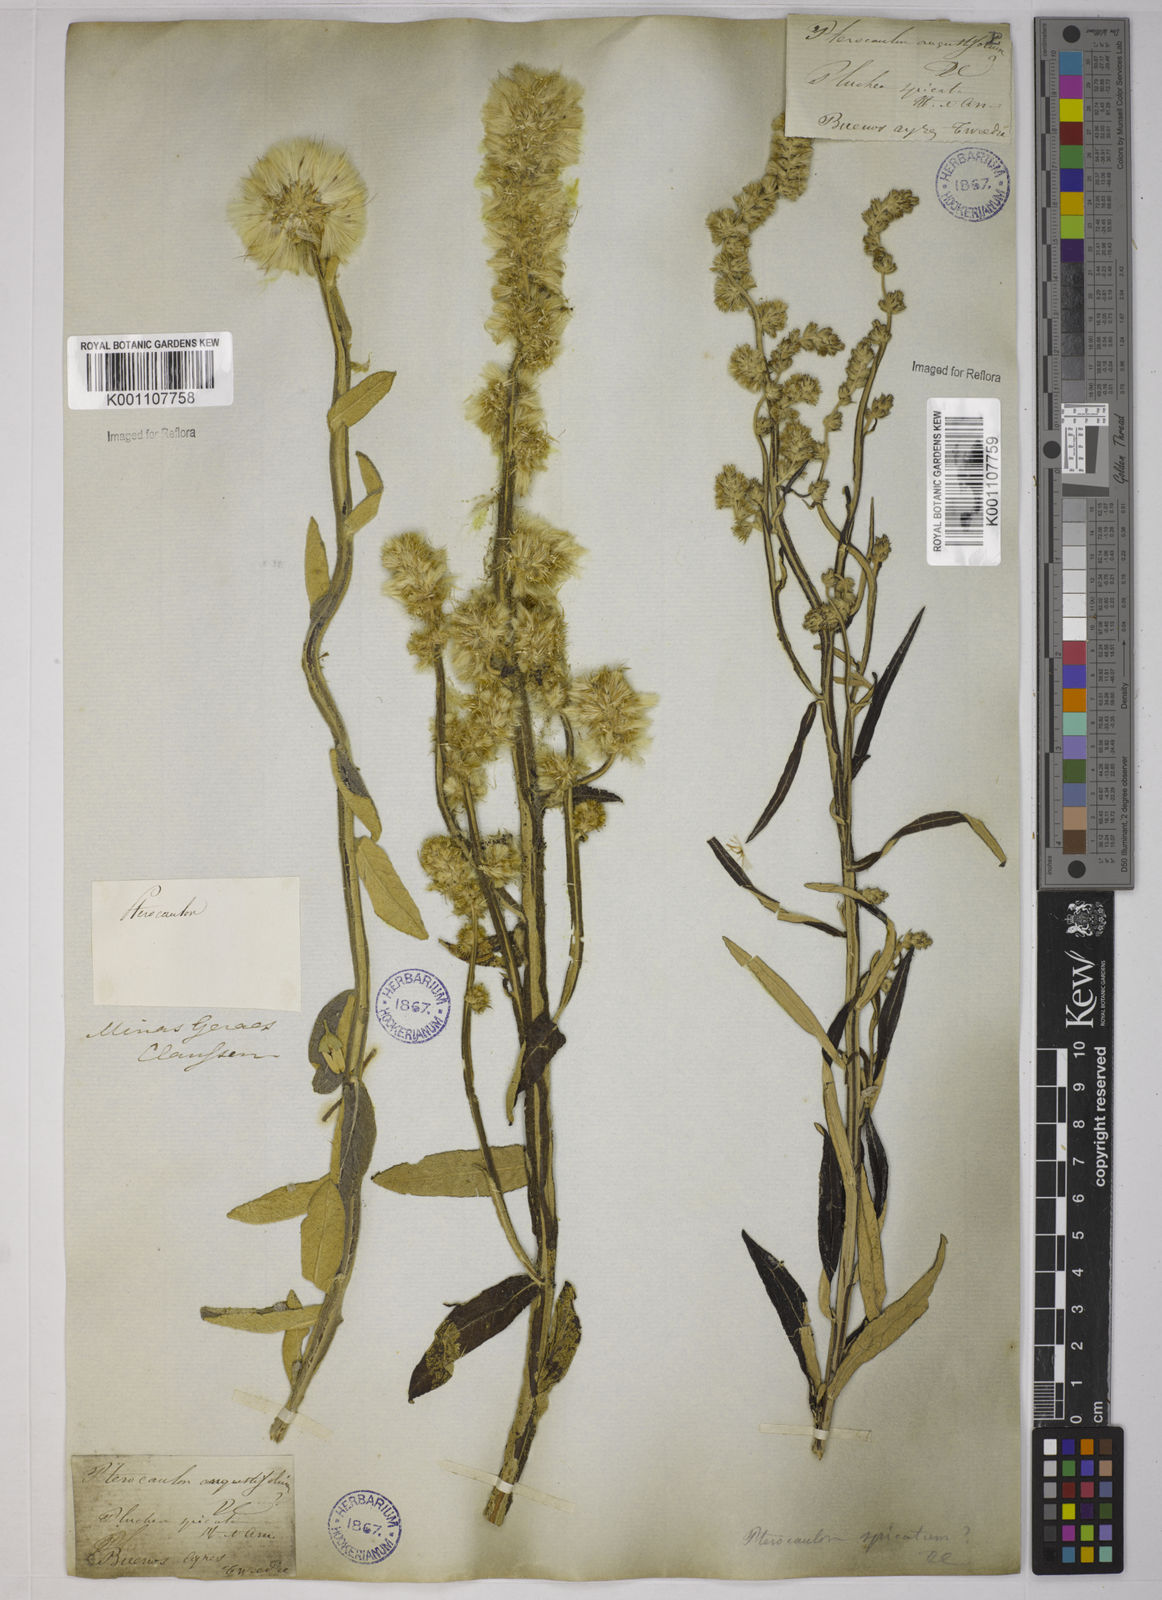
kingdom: Plantae
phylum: Tracheophyta
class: Magnoliopsida
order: Asterales
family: Asteraceae
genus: Pterocaulon
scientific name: Pterocaulon alopecuroides
